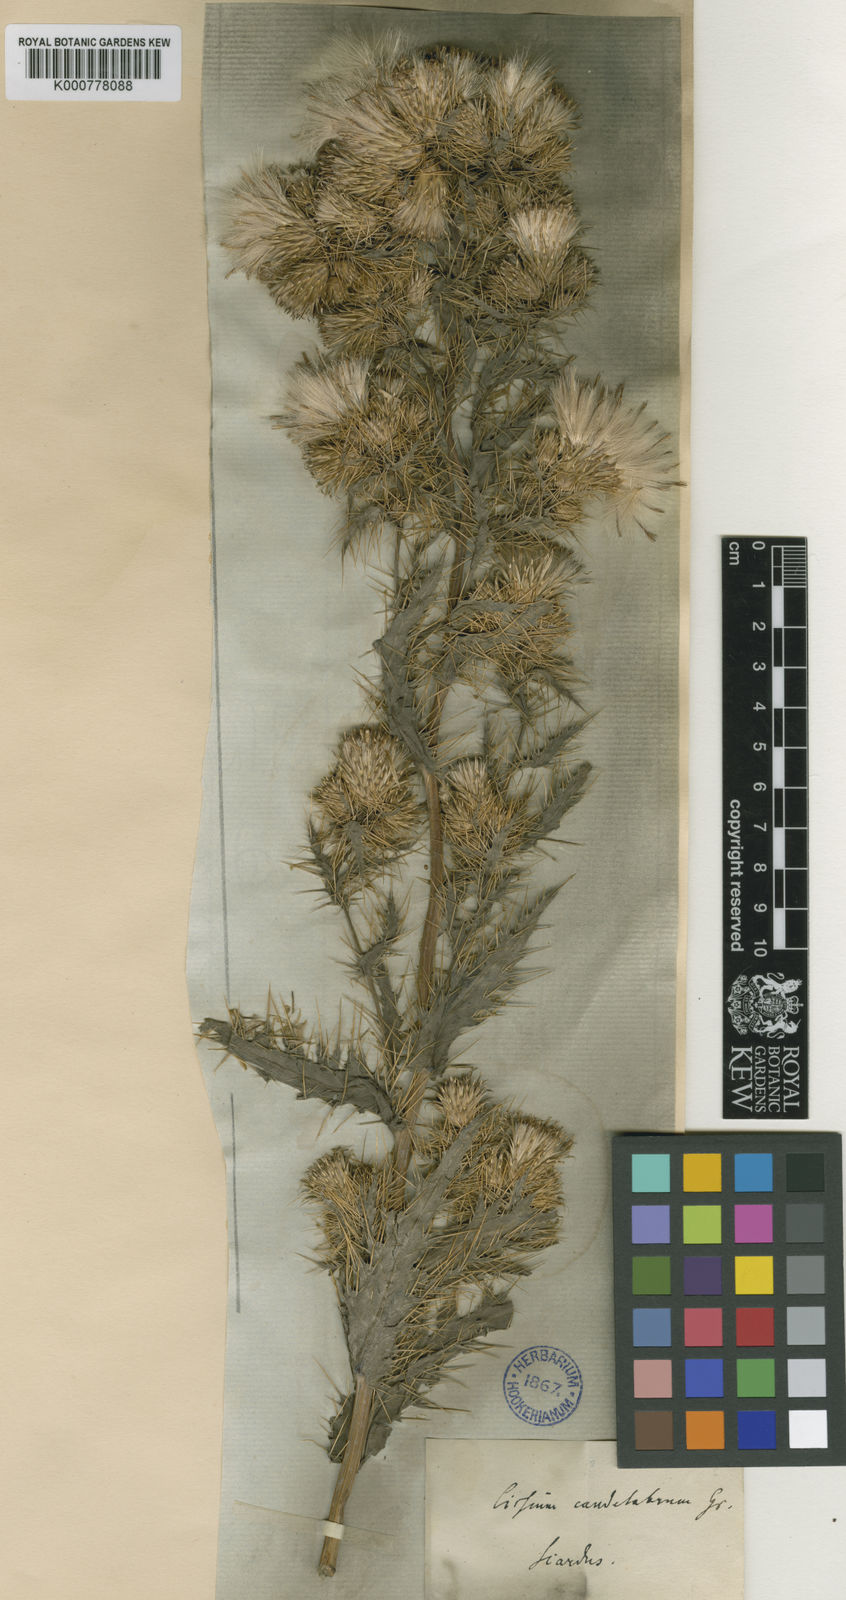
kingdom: Plantae
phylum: Tracheophyta
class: Magnoliopsida
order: Asterales
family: Asteraceae
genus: Cirsium
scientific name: Cirsium candelabrum
